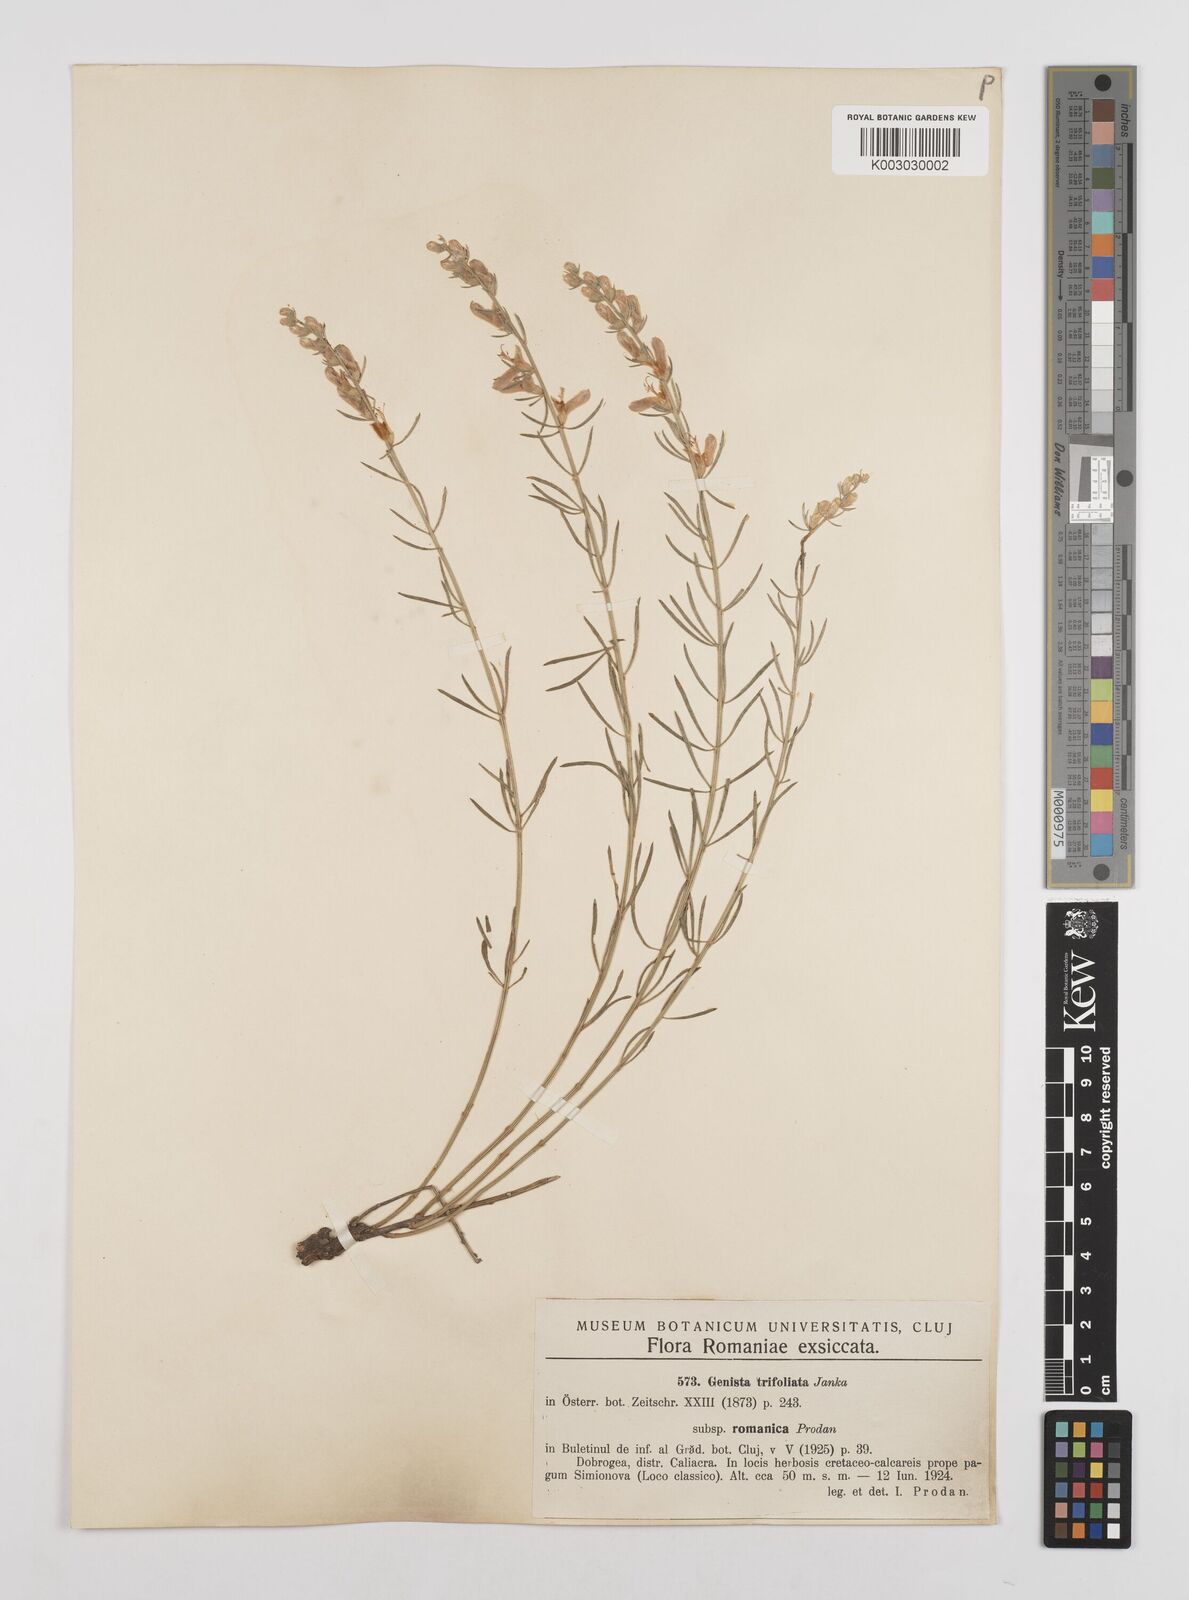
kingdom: Plantae
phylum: Tracheophyta
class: Magnoliopsida
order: Fabales
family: Fabaceae
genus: Genista
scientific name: Genista sessilifolia
